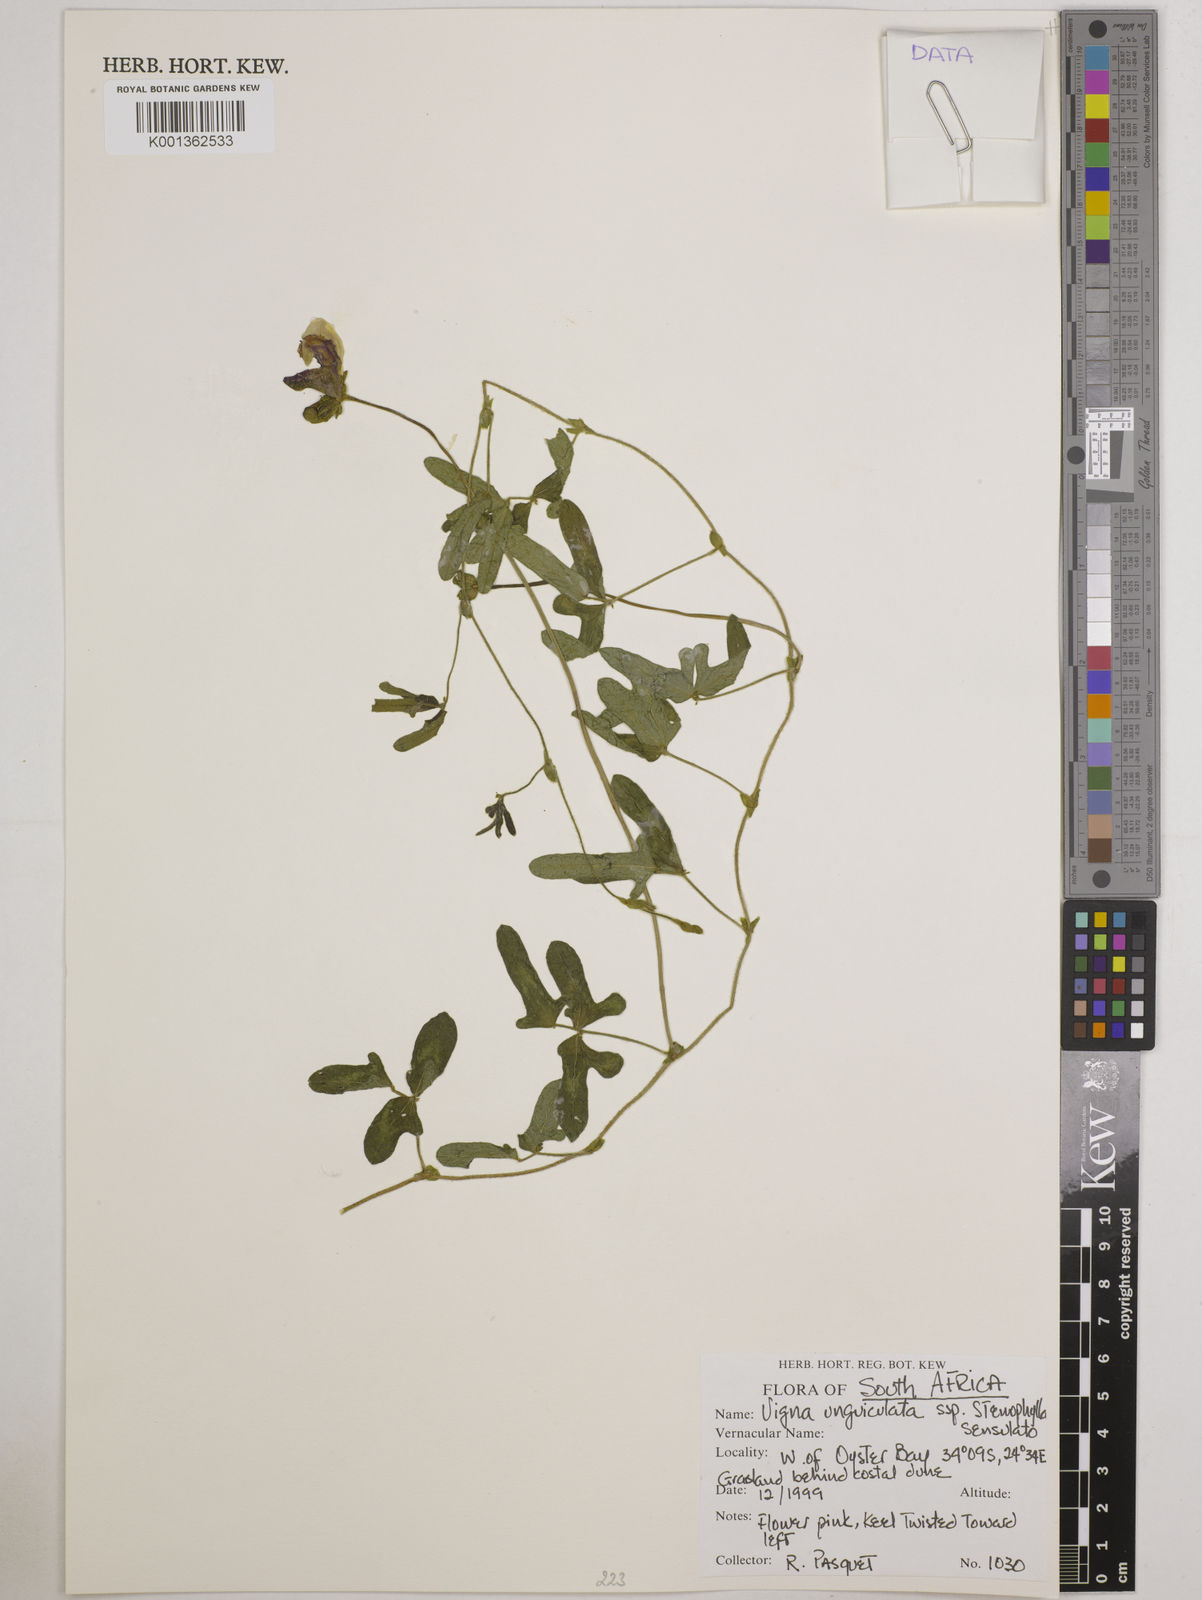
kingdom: Plantae
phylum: Tracheophyta
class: Magnoliopsida
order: Fabales
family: Fabaceae
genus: Vigna
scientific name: Vigna
